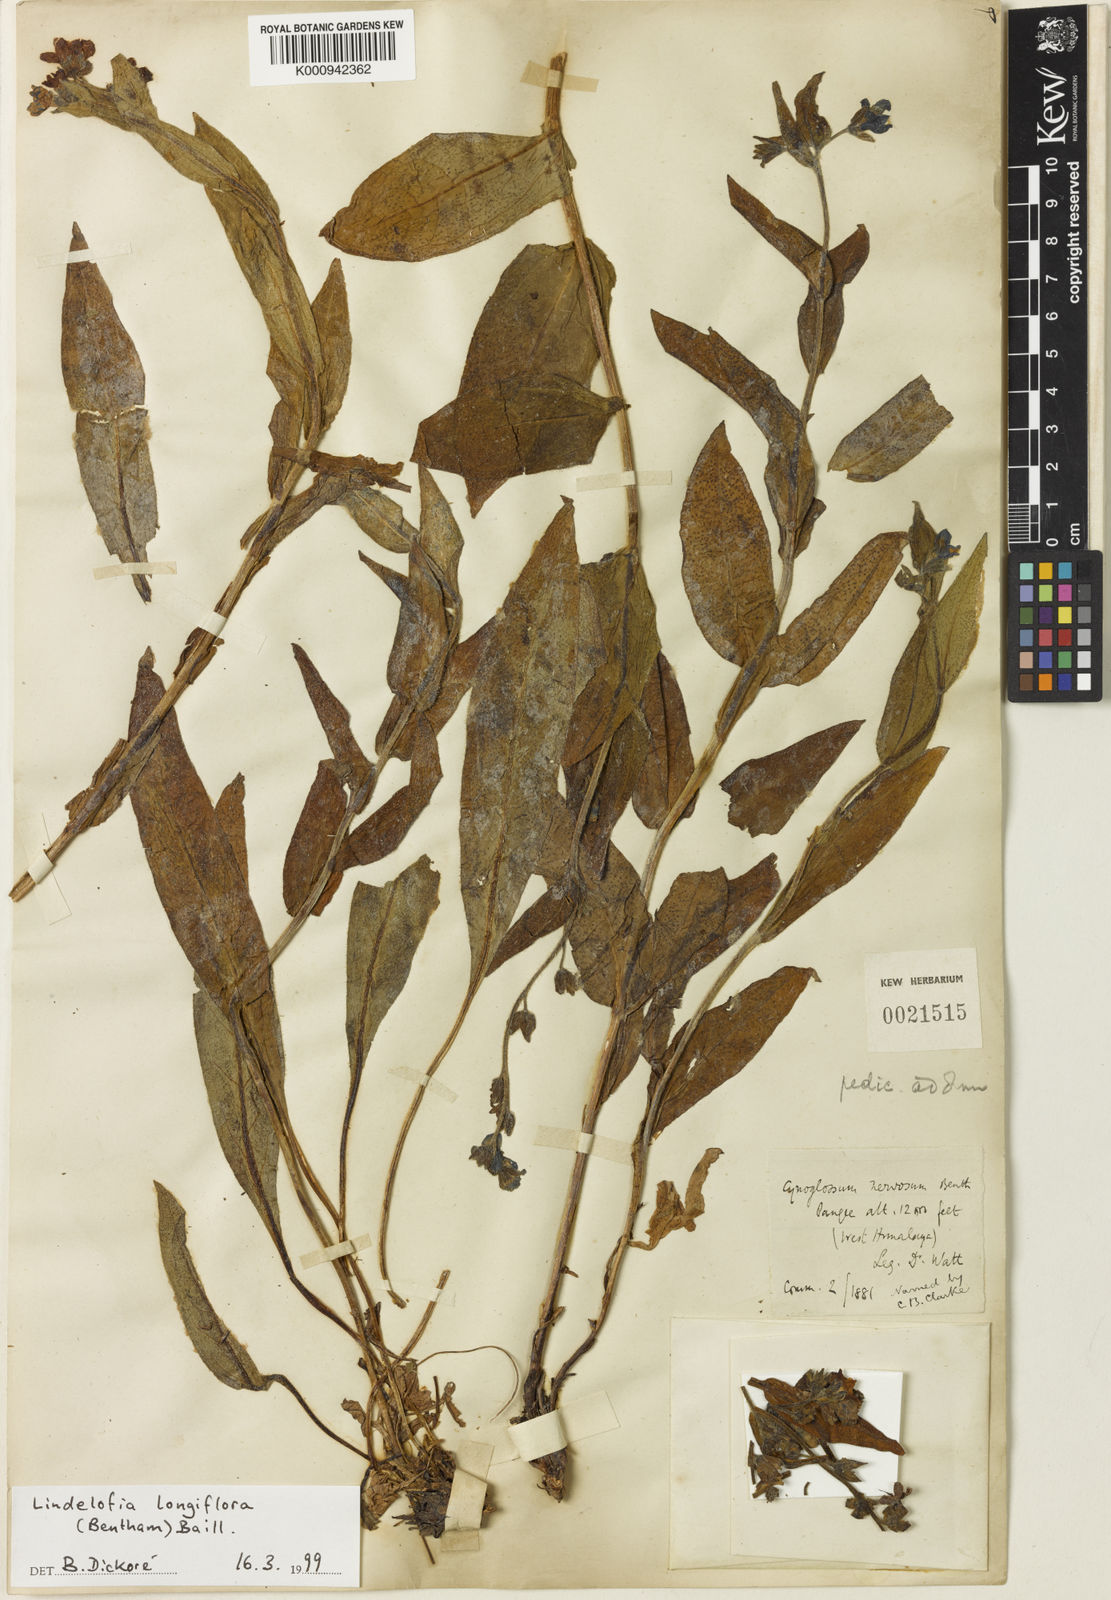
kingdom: Plantae
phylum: Tracheophyta
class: Magnoliopsida
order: Boraginales
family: Boraginaceae
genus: Cynoglossum
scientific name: Cynoglossum
